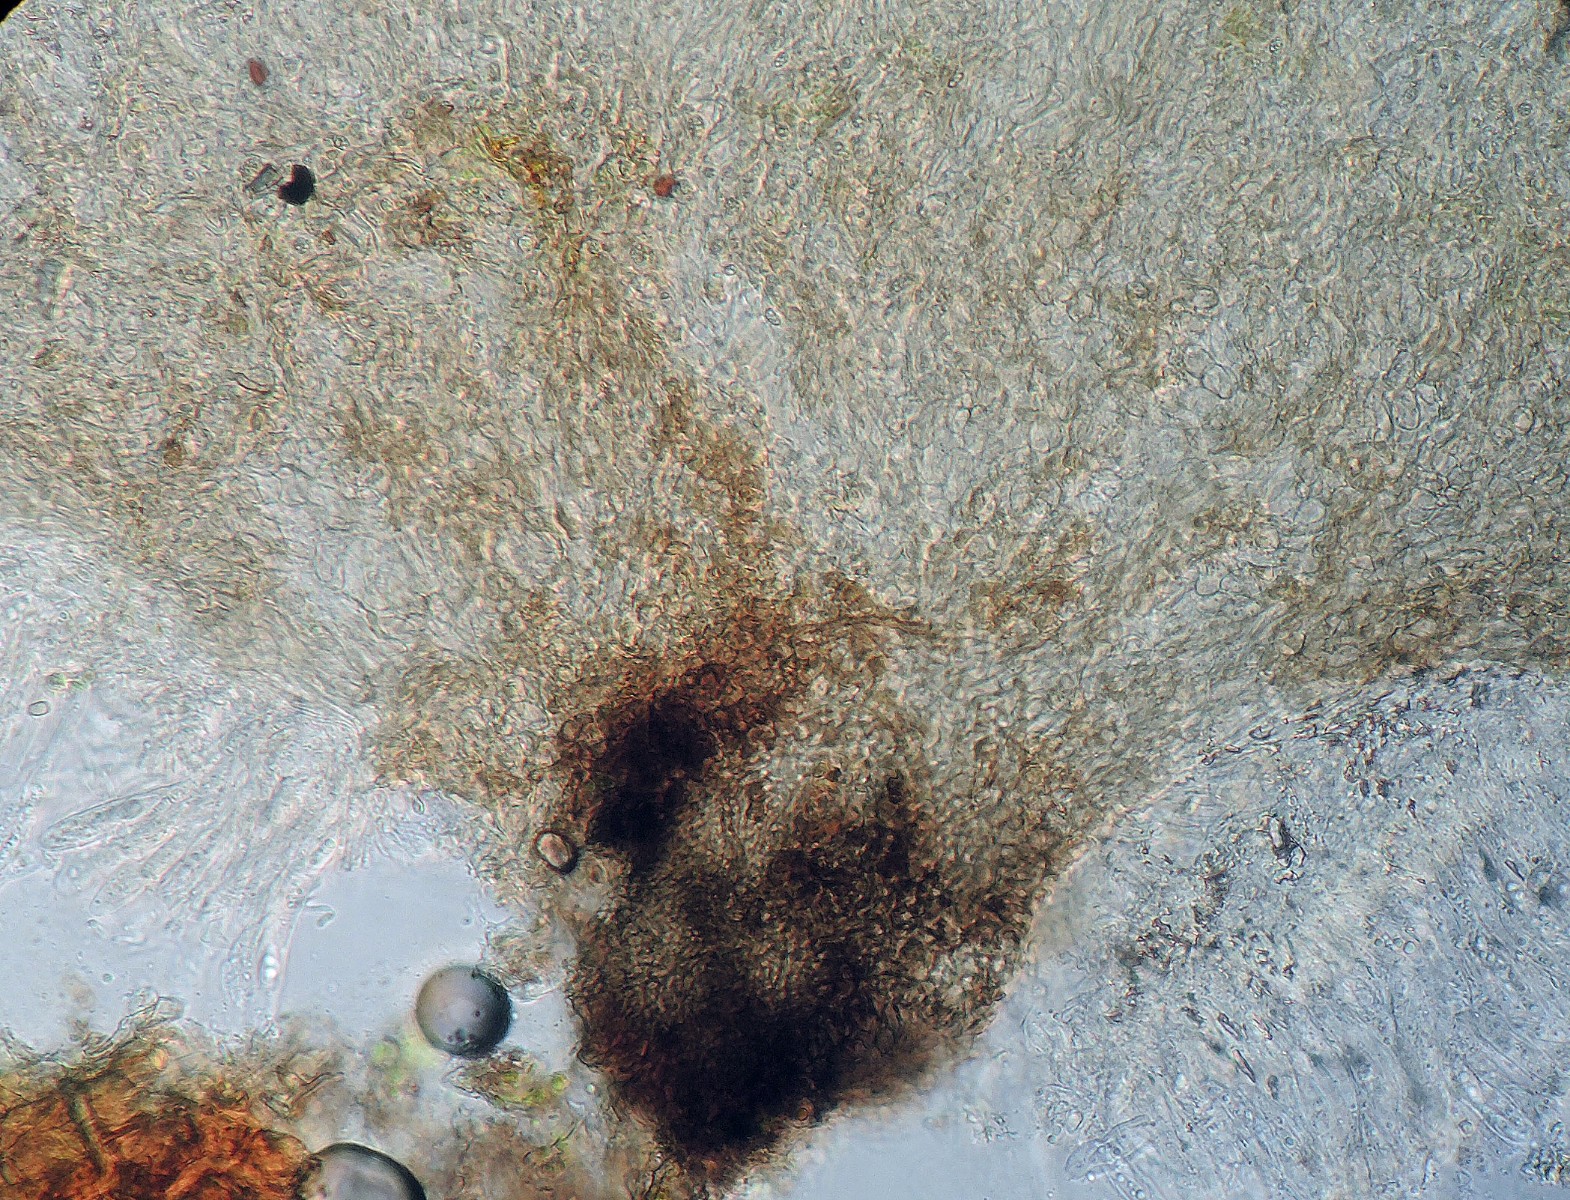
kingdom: Fungi
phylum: Ascomycota
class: Leotiomycetes
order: Helotiales
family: Pezizellaceae
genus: Pezizella
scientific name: Pezizella
